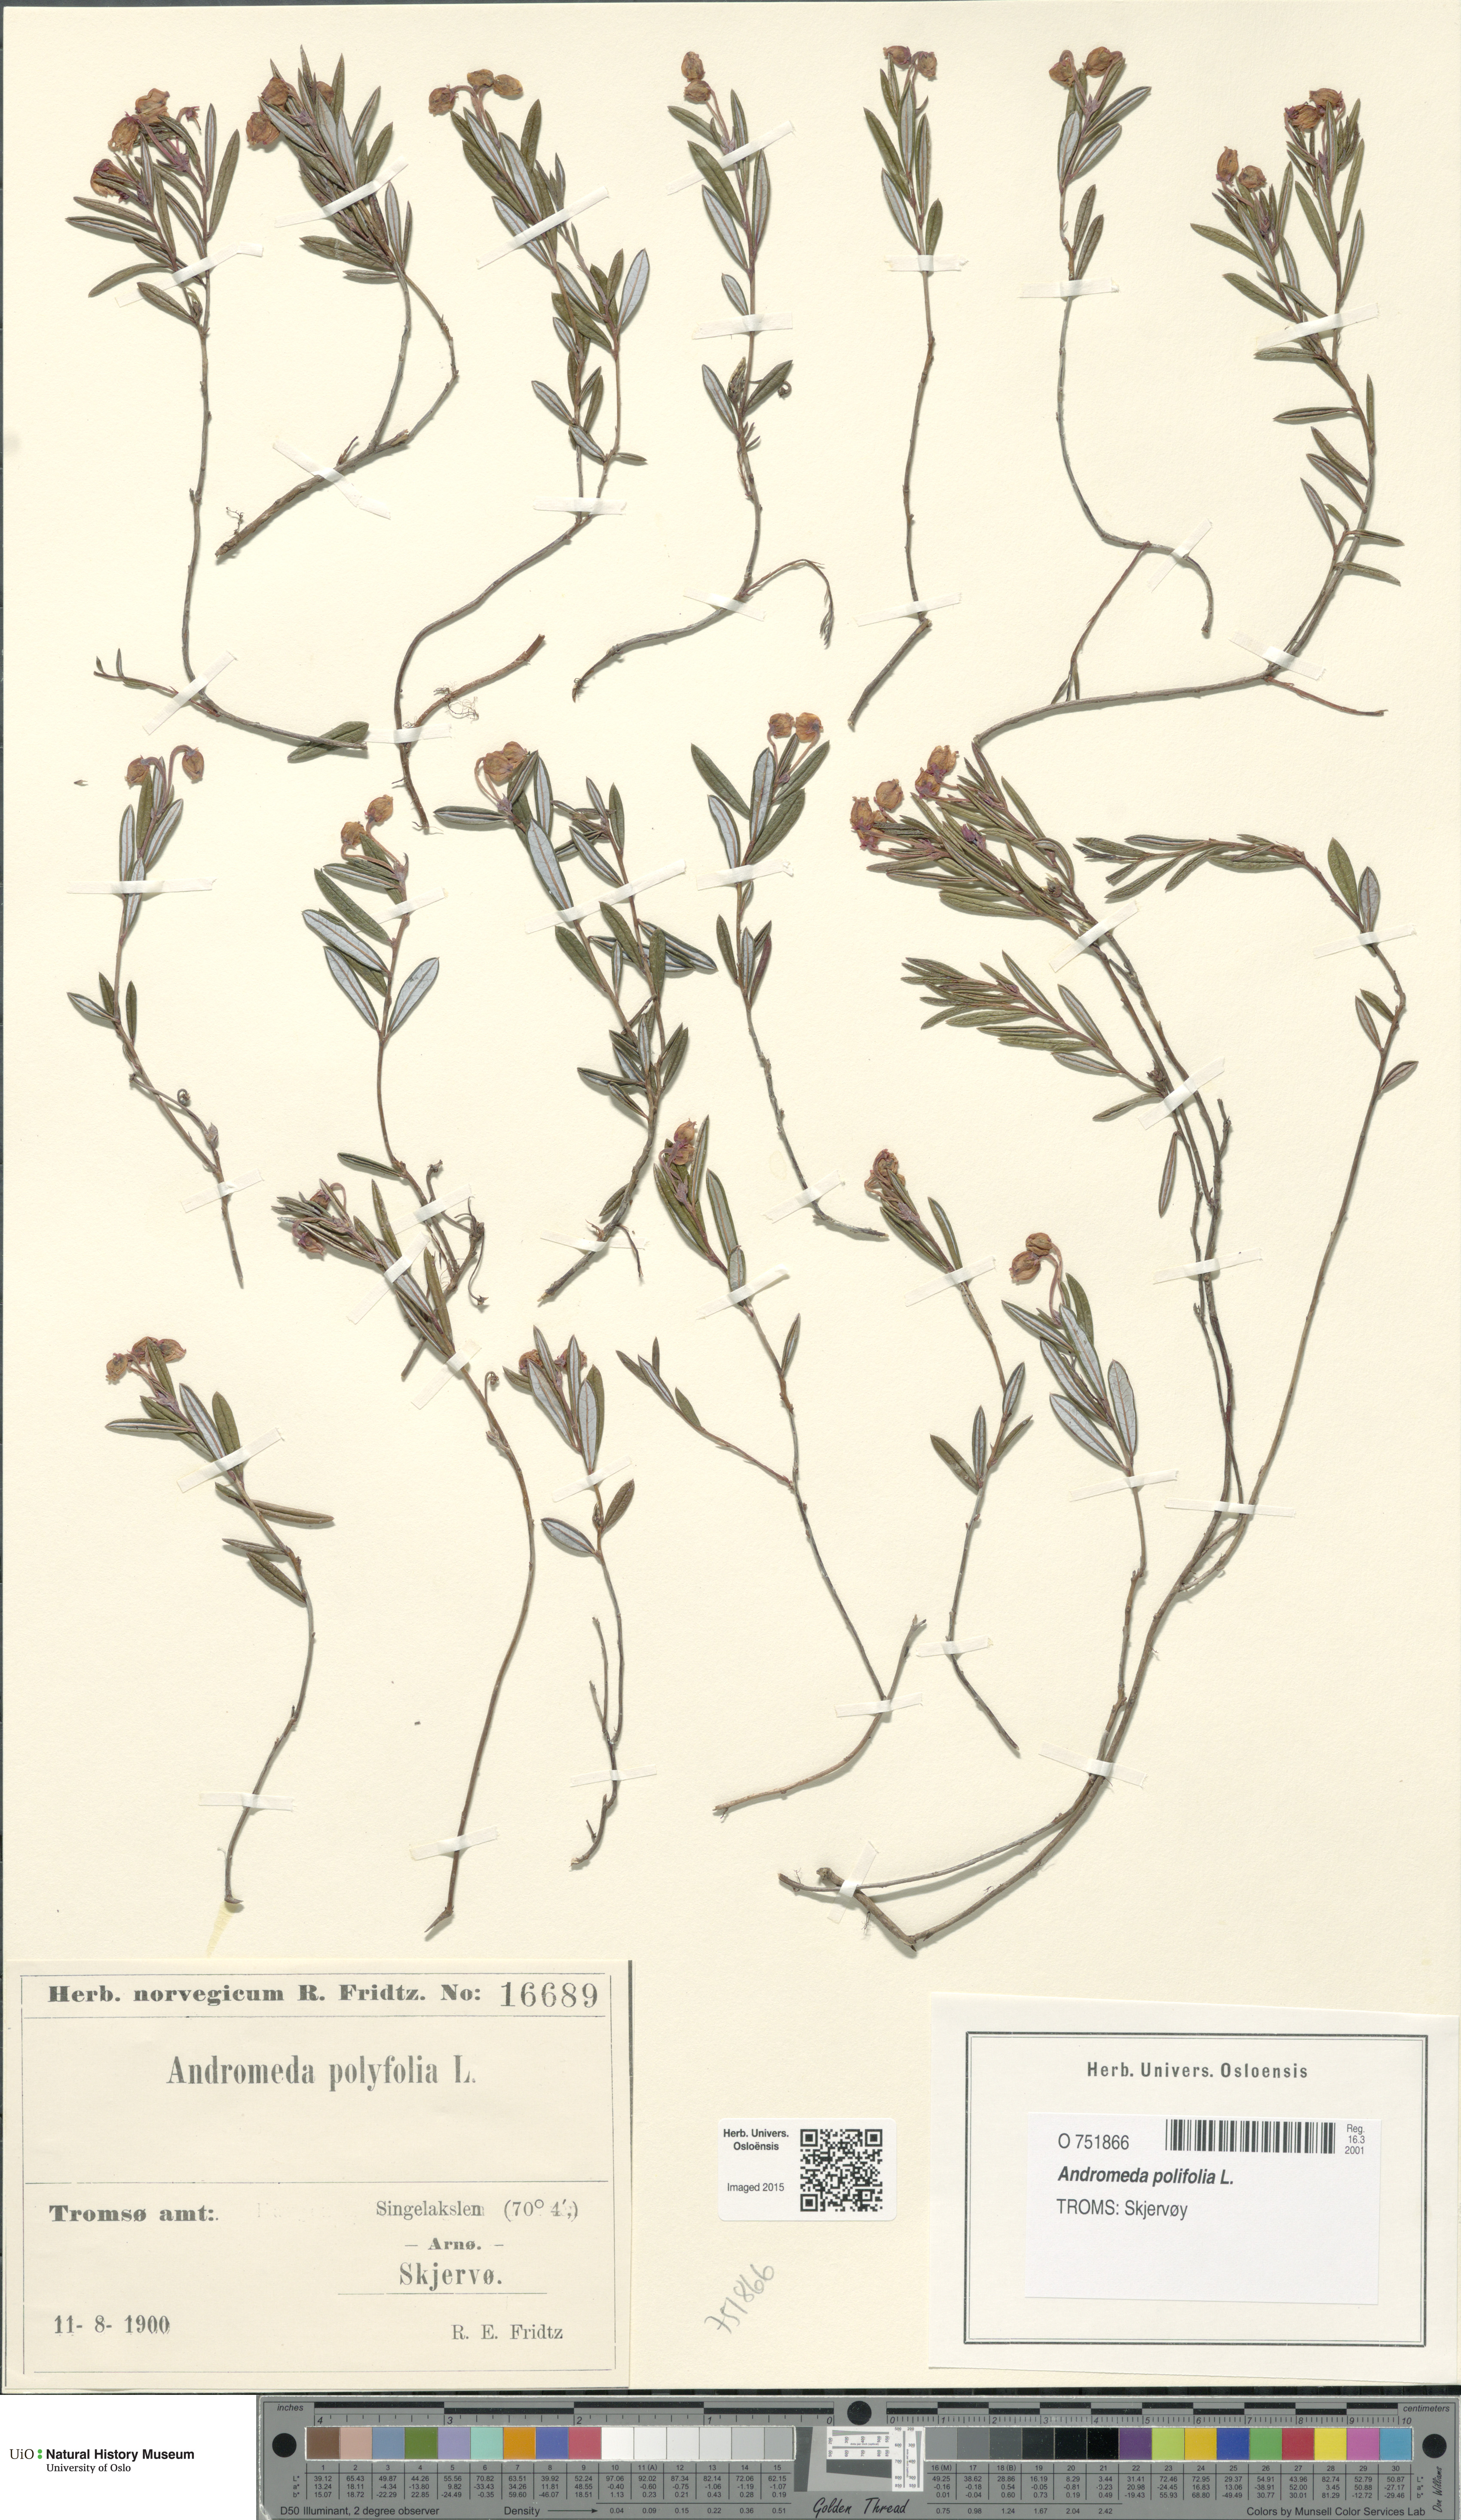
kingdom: Plantae
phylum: Tracheophyta
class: Magnoliopsida
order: Ericales
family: Ericaceae
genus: Andromeda
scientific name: Andromeda polifolia
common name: Bog-rosemary
